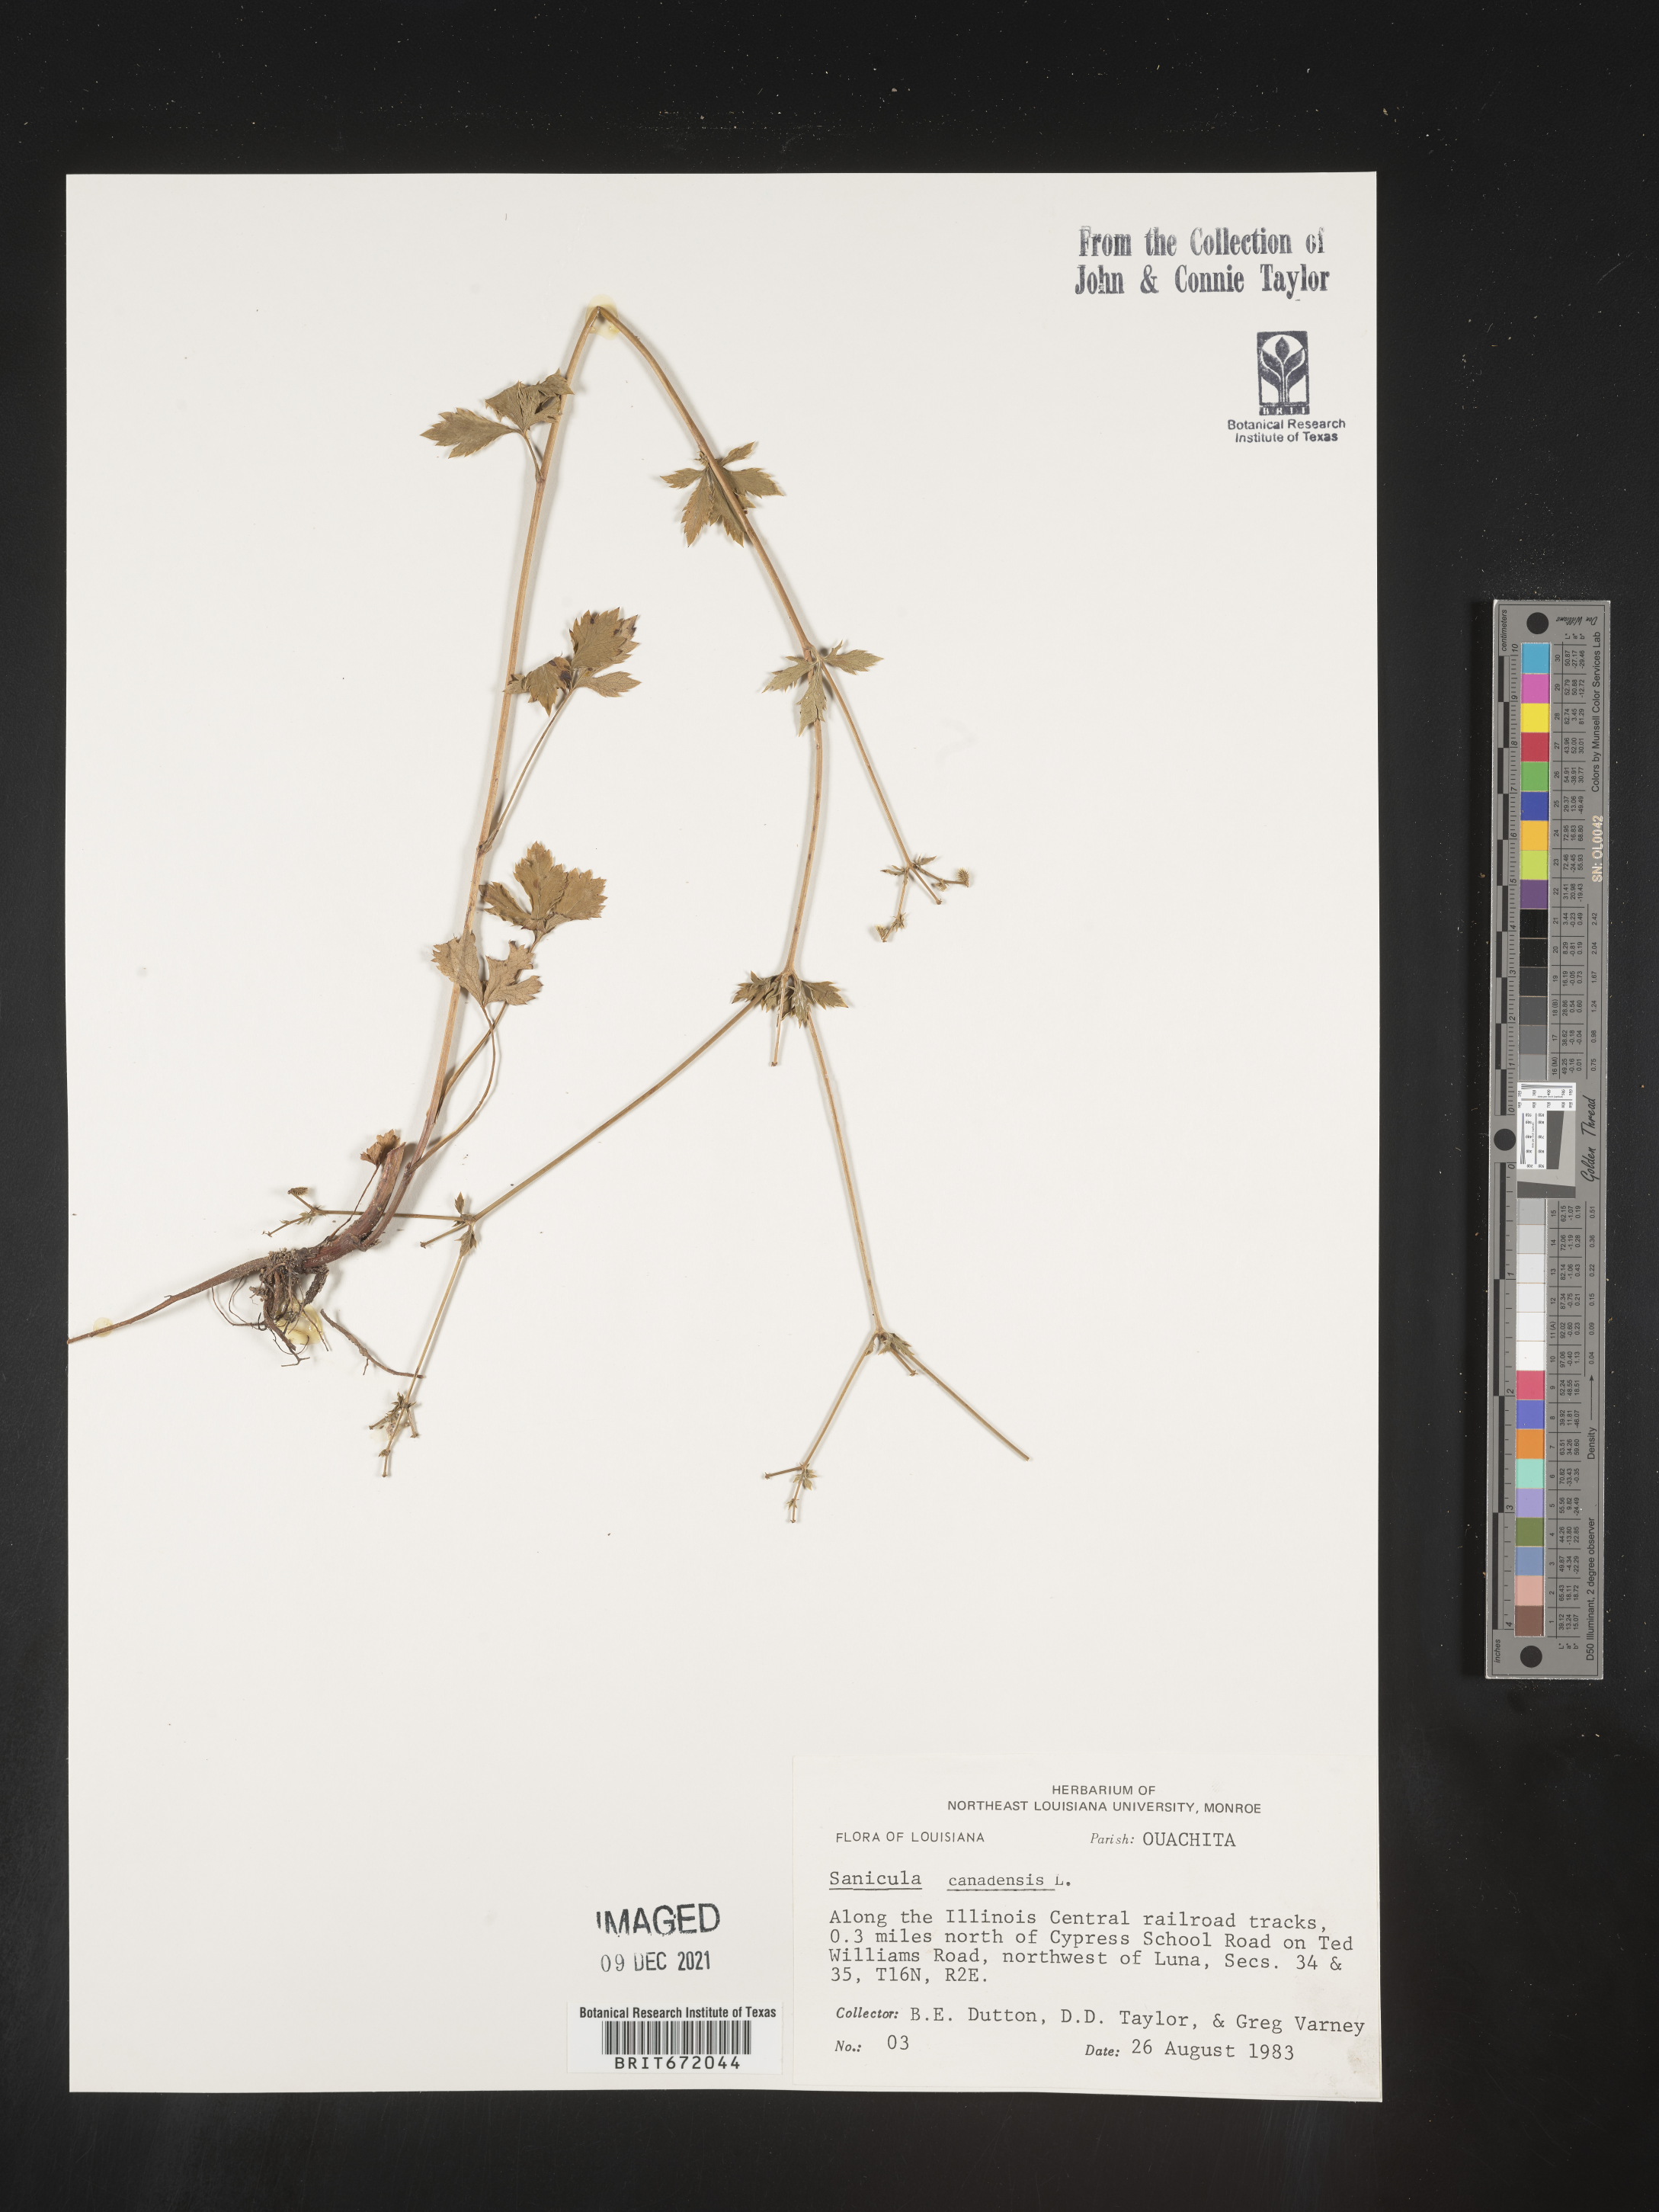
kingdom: Plantae
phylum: Tracheophyta
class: Magnoliopsida
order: Apiales
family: Apiaceae
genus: Sanicula
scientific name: Sanicula canadensis
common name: Canada sanicle
